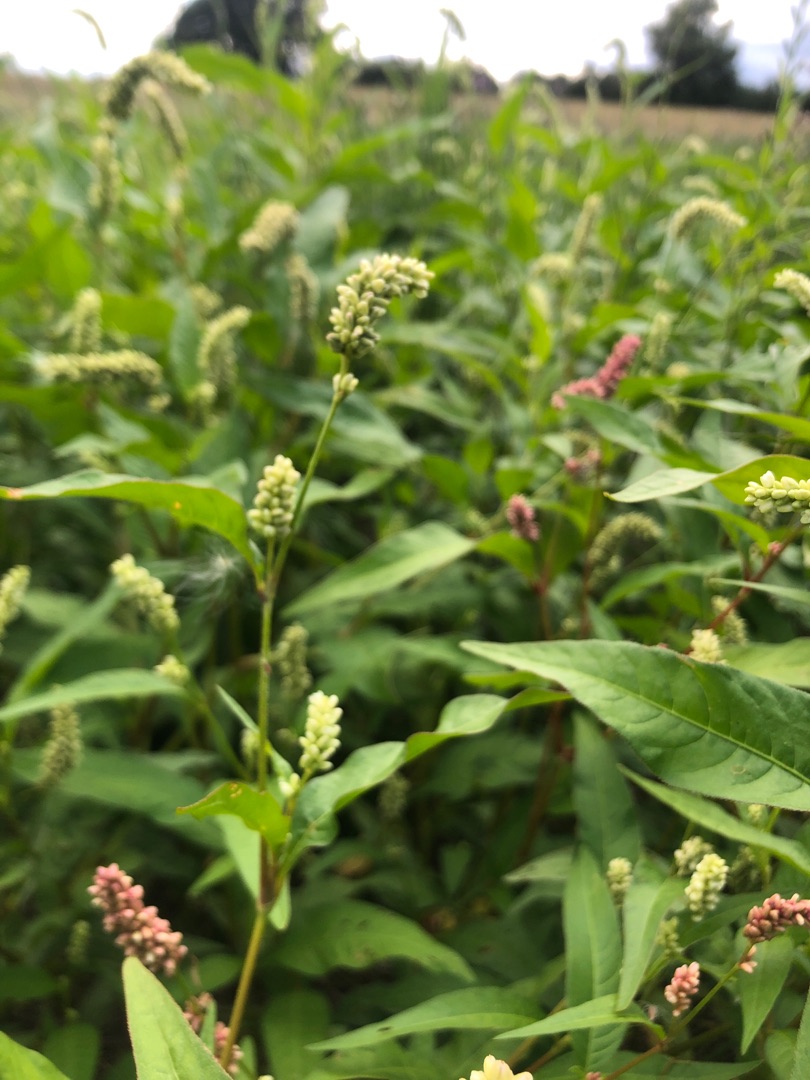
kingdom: Plantae
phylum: Tracheophyta
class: Magnoliopsida
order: Caryophyllales
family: Polygonaceae
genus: Persicaria
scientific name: Persicaria lapathifolia
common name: Knudet pileurt
